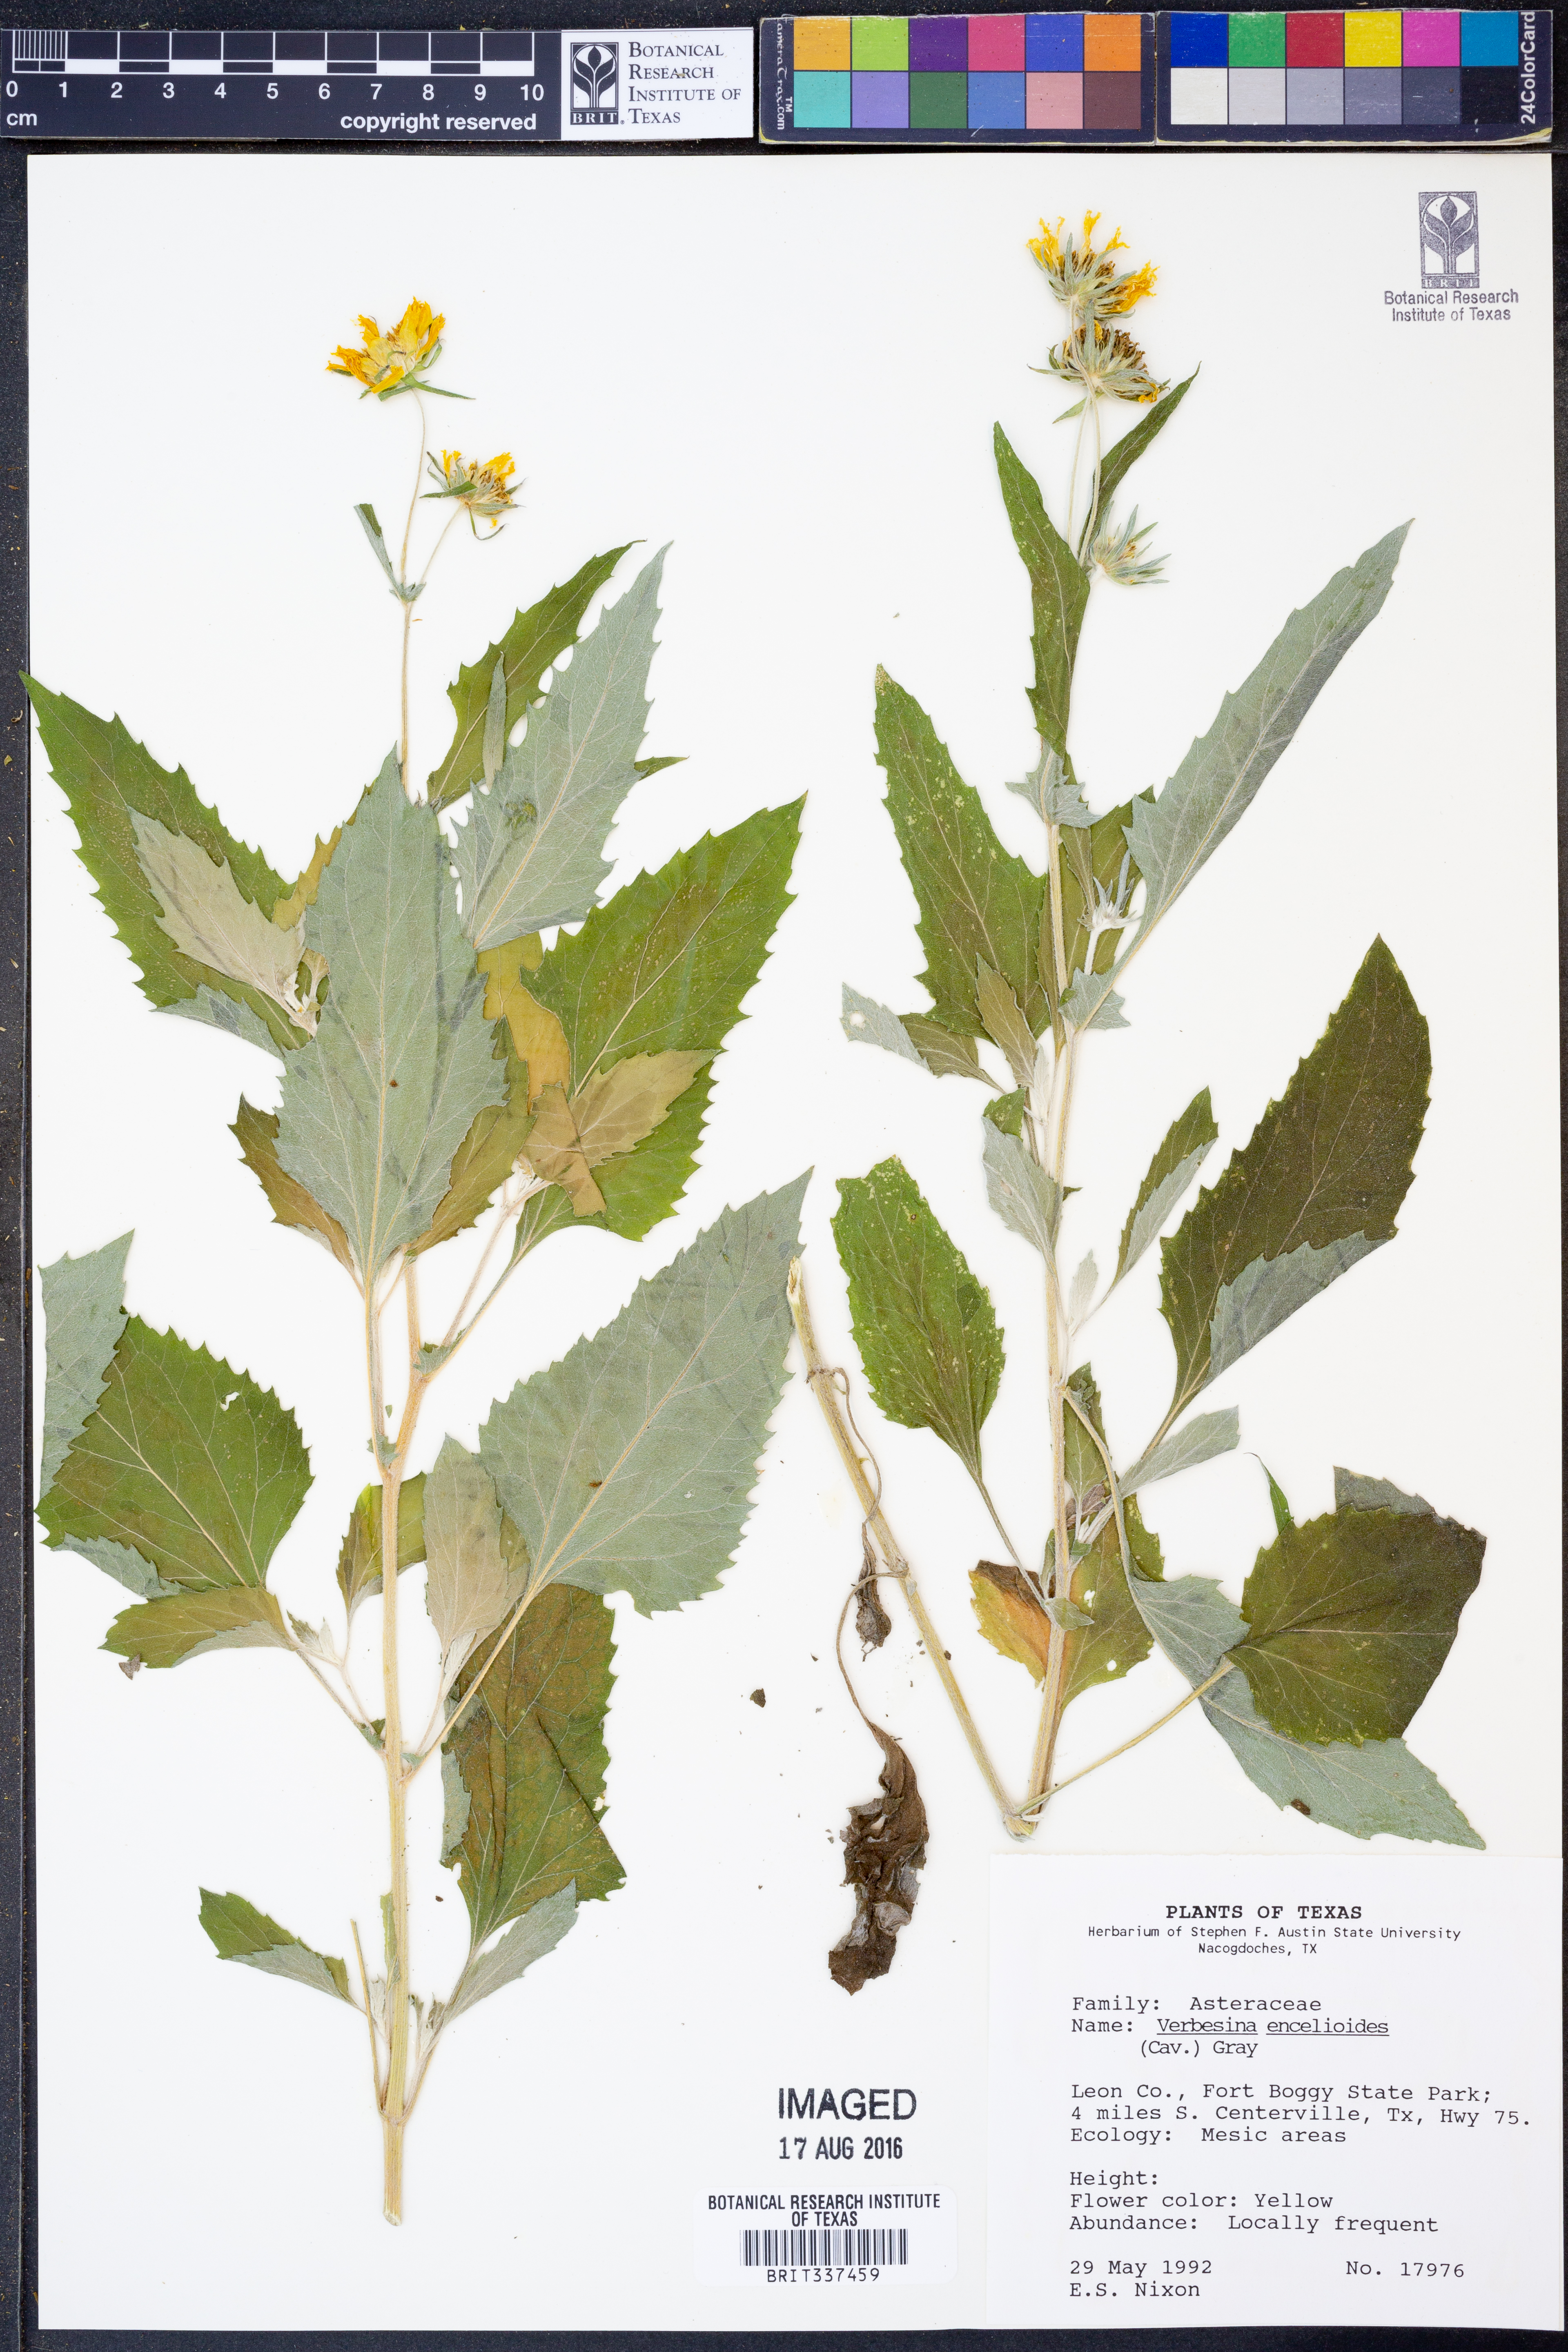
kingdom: Plantae
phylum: Tracheophyta
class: Magnoliopsida
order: Asterales
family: Asteraceae
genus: Verbesina
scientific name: Verbesina encelioides
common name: Golden crownbeard
